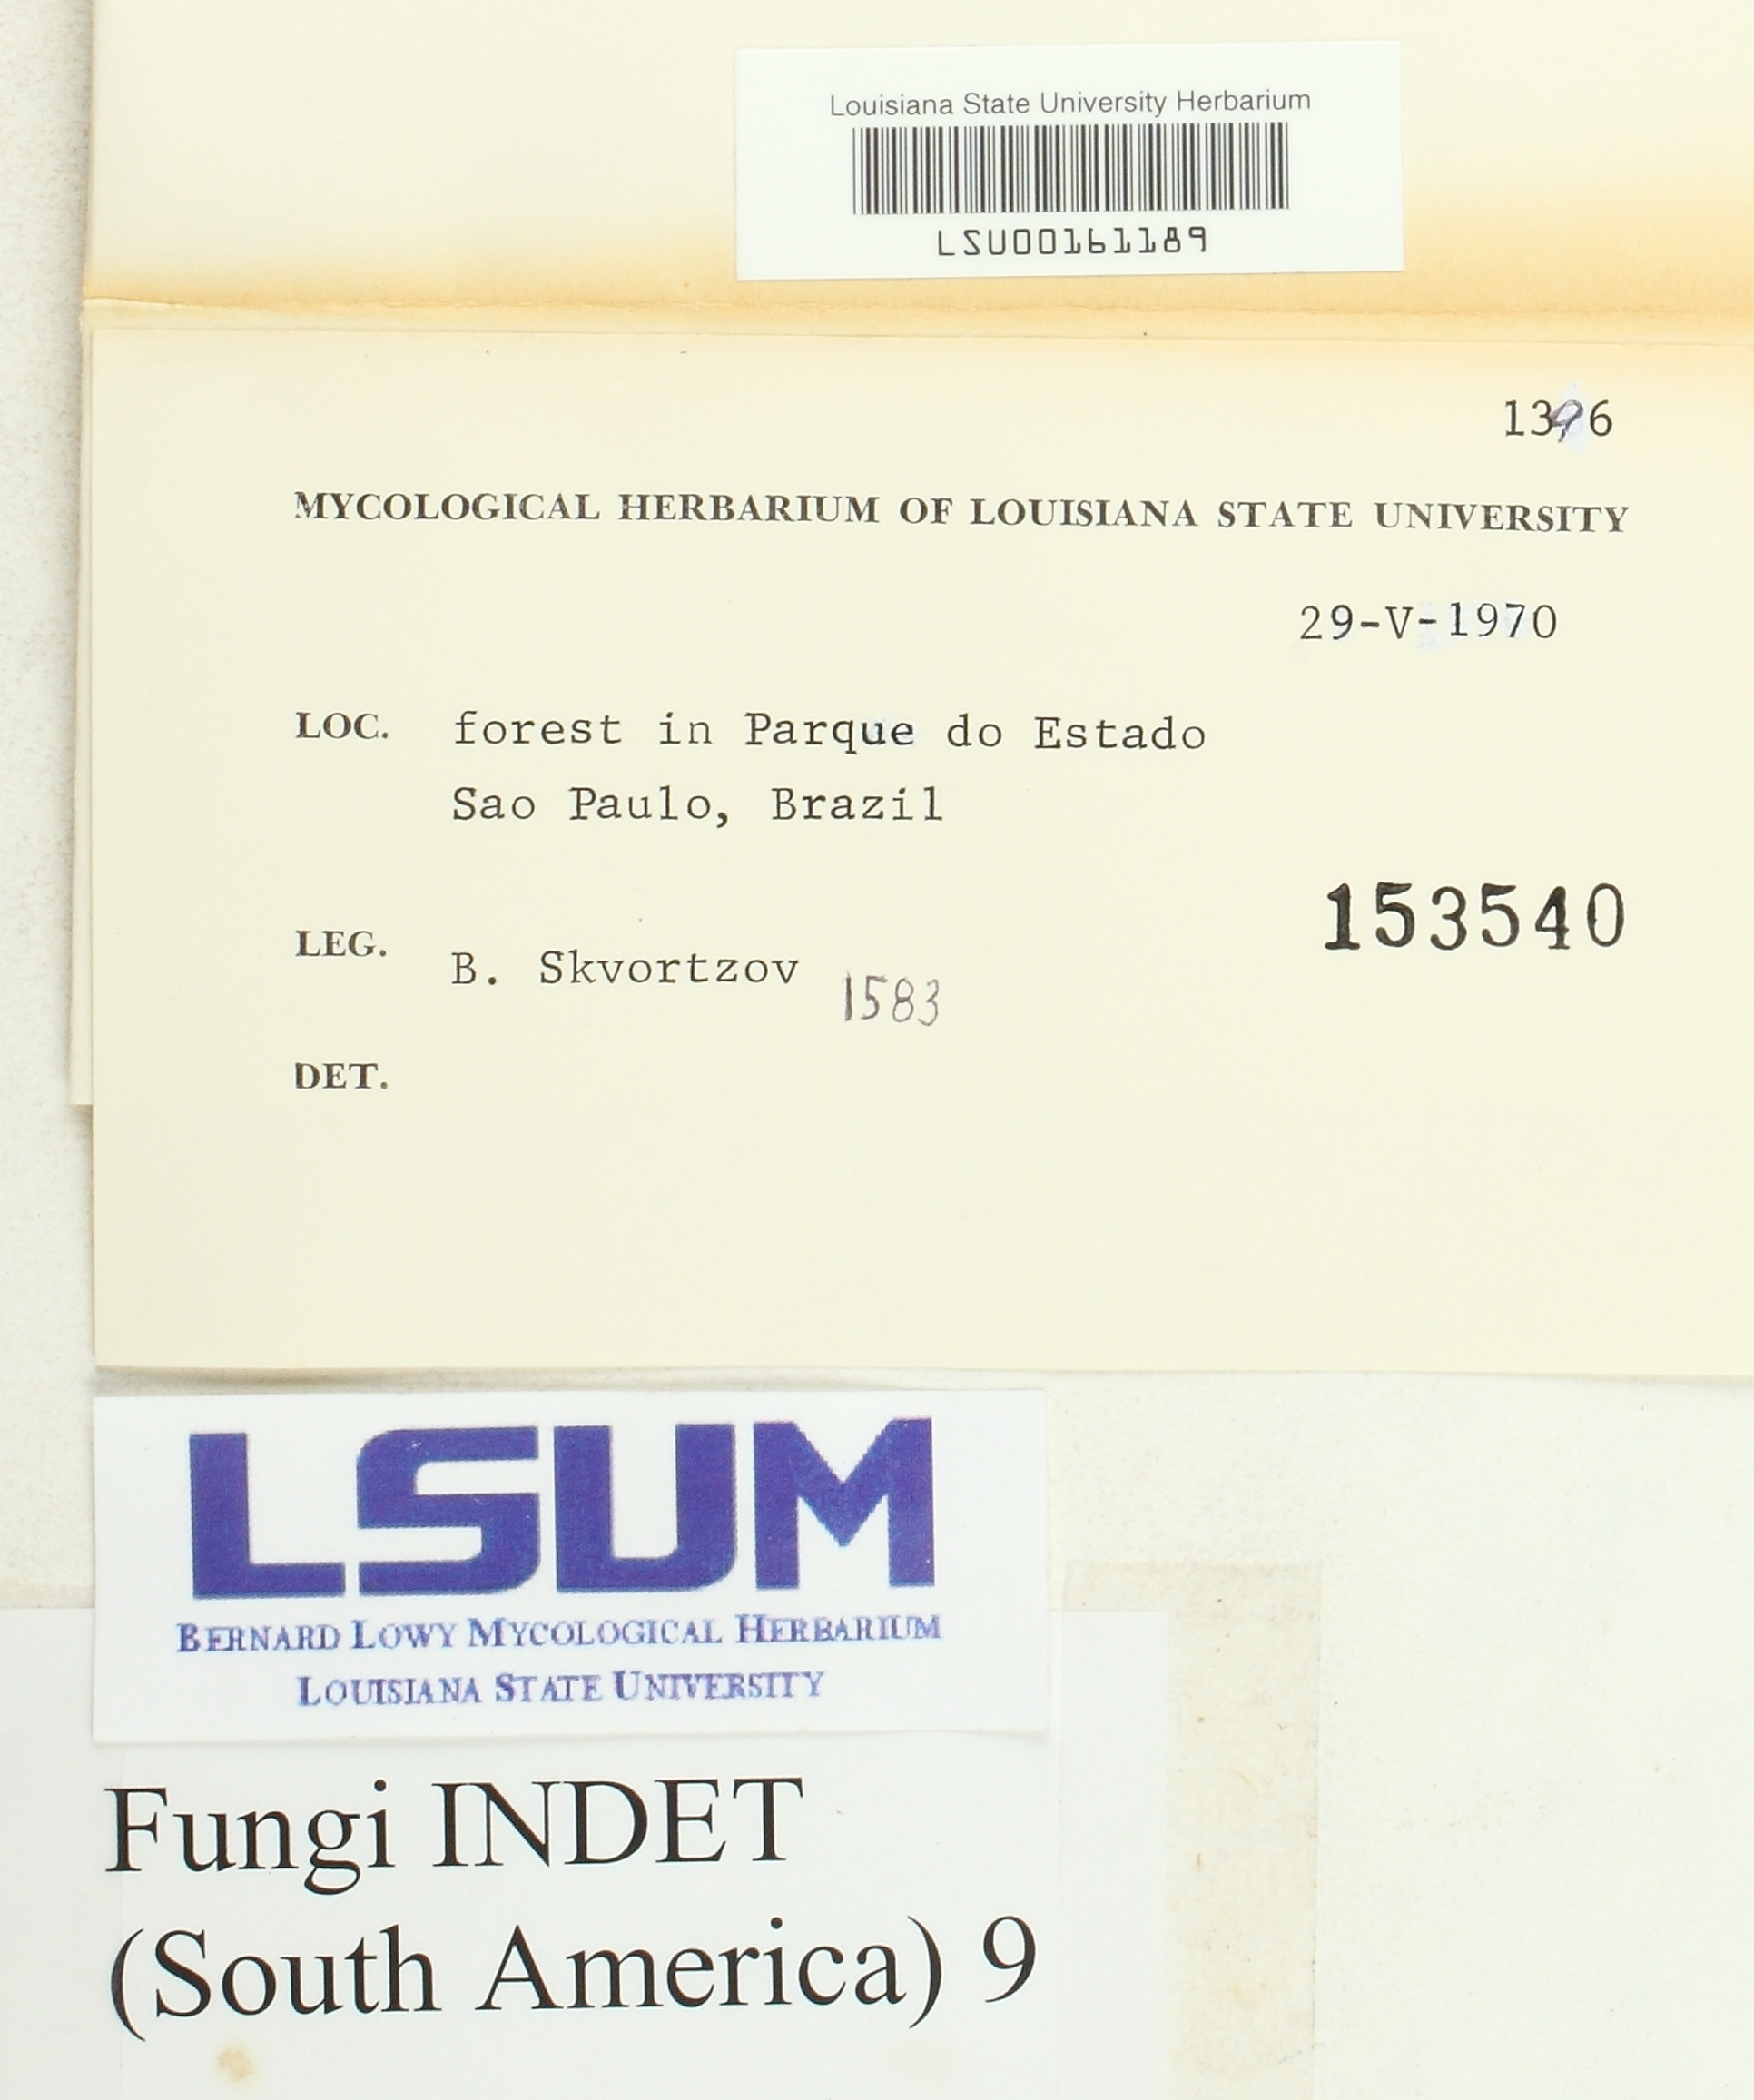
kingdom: Fungi
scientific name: Fungi
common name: Fungi
